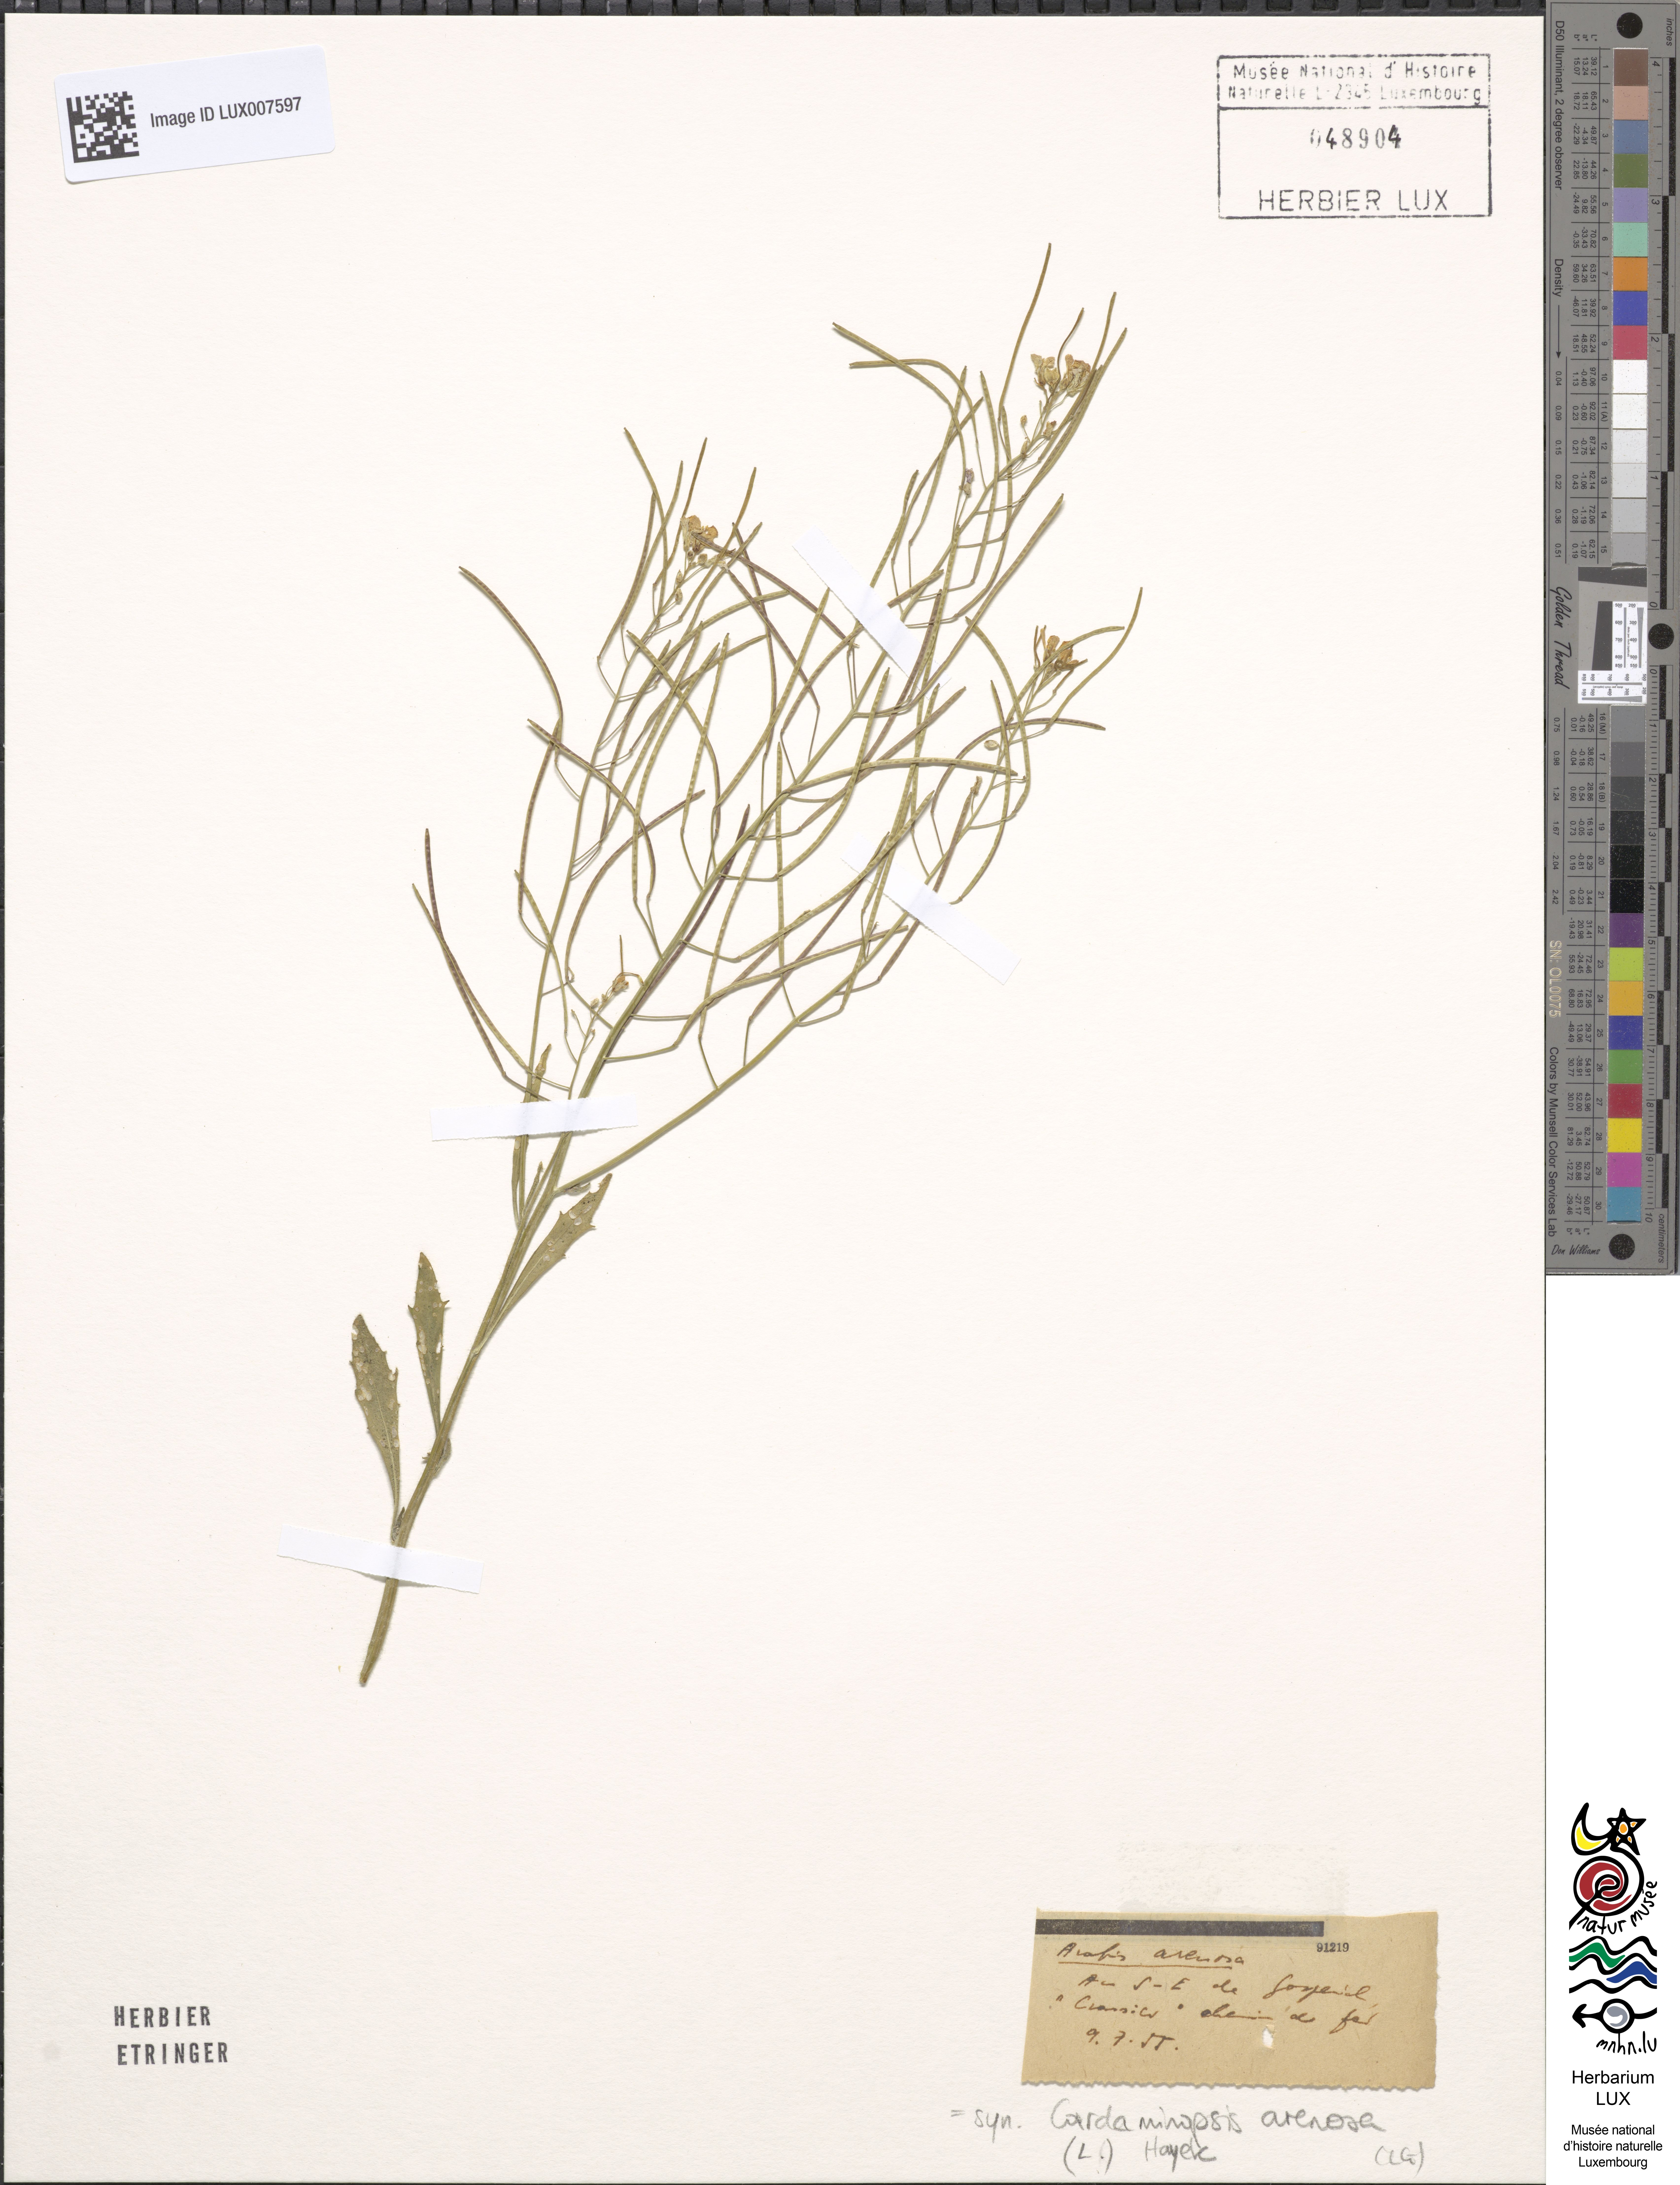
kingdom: Plantae
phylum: Tracheophyta
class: Magnoliopsida
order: Brassicales
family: Brassicaceae
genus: Arabidopsis
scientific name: Arabidopsis arenosa
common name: Sand rock-cress
